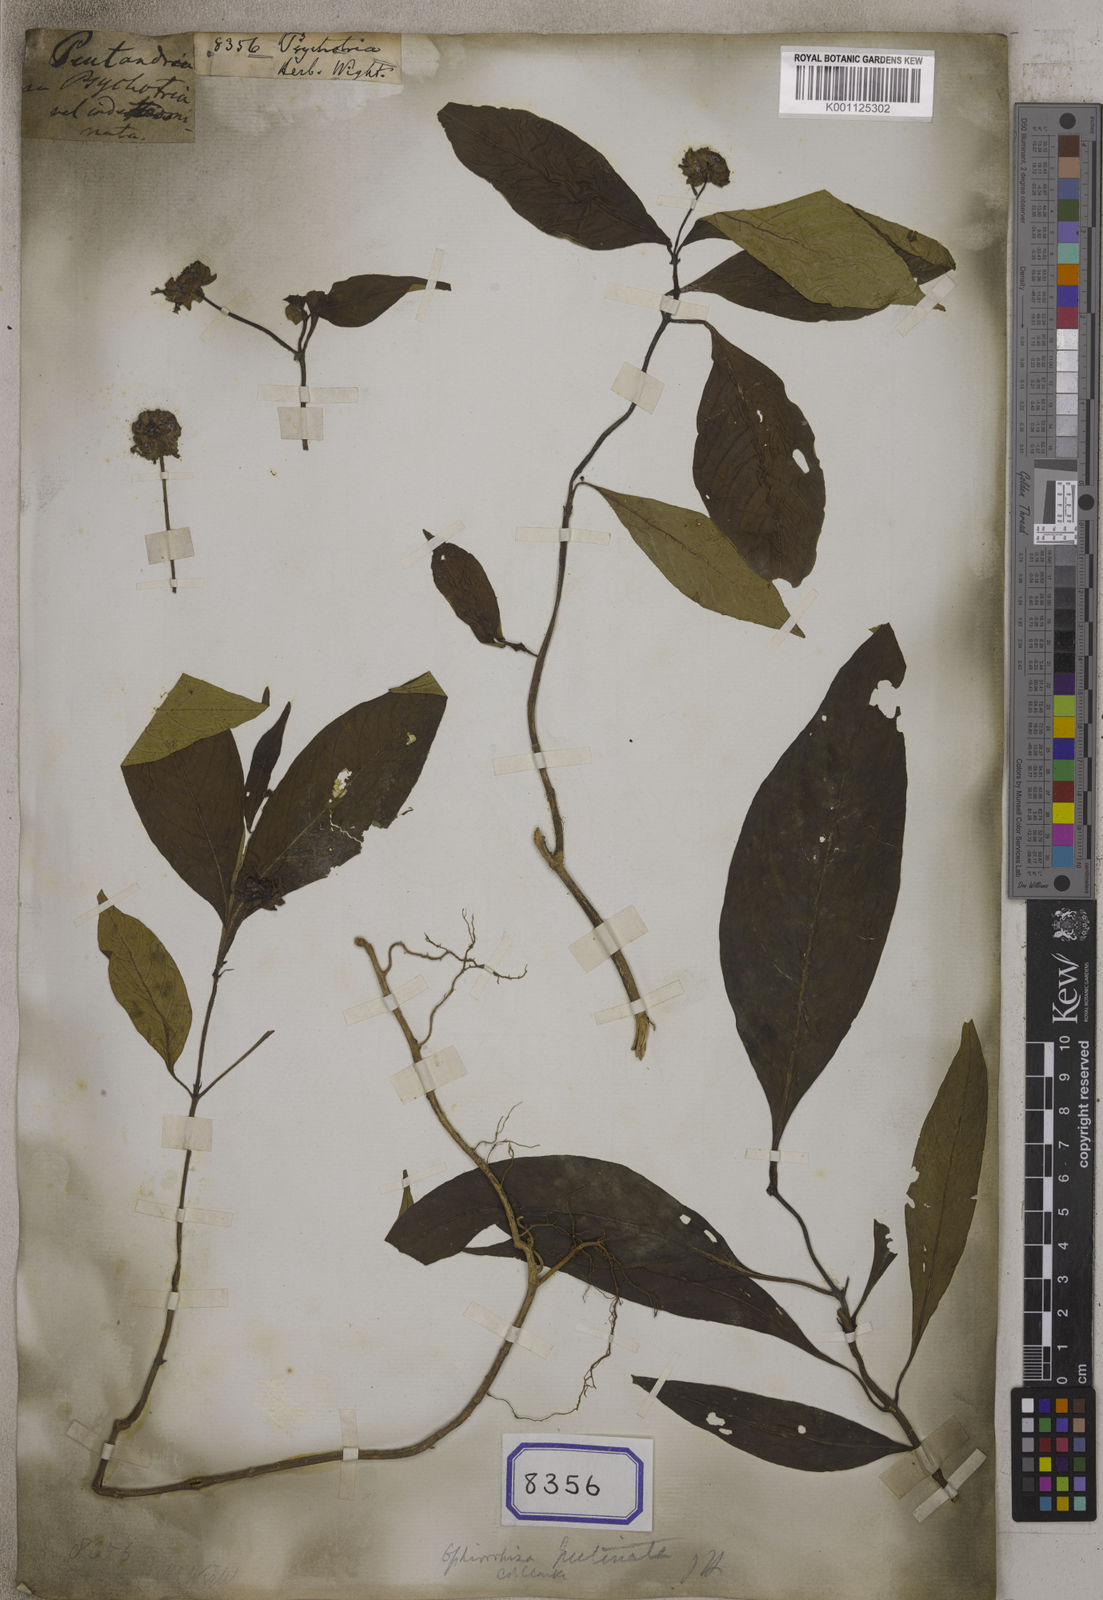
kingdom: Plantae
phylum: Tracheophyta
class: Magnoliopsida
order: Gentianales
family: Rubiaceae
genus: Psychotria
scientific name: Psychotria
